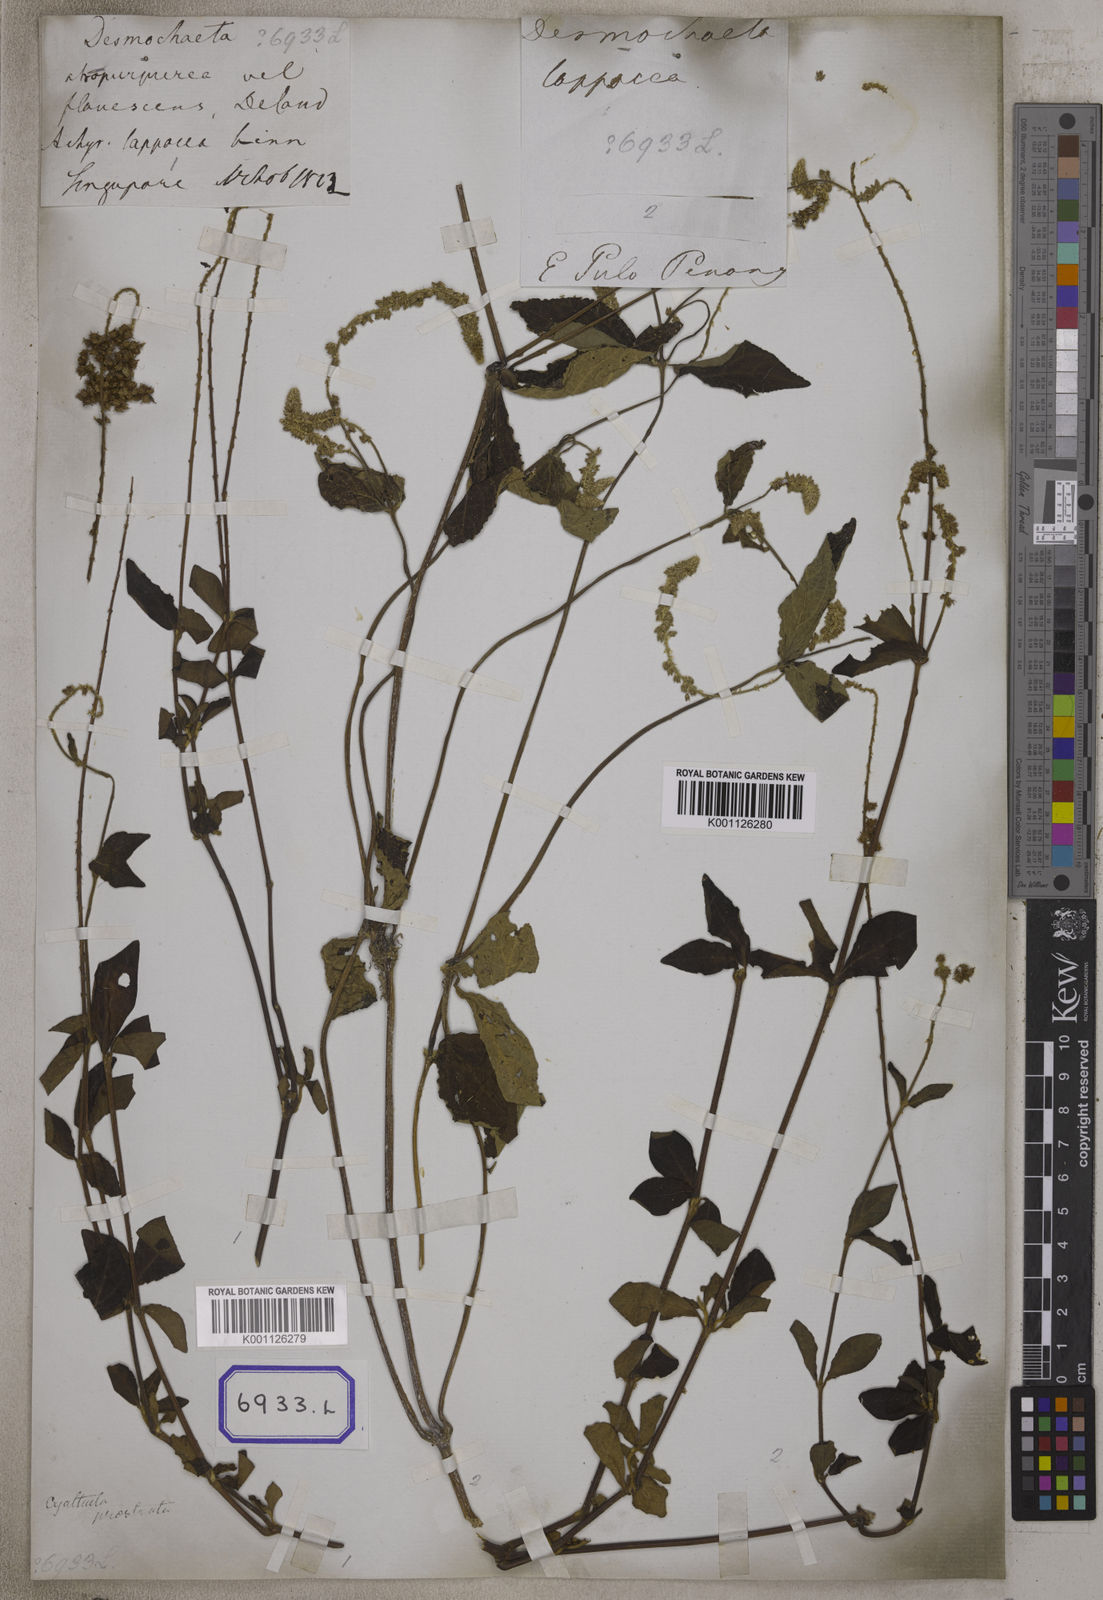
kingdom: Plantae
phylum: Tracheophyta
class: Magnoliopsida
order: Caryophyllales
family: Amaranthaceae
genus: Pupalia
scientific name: Pupalia lappacea
